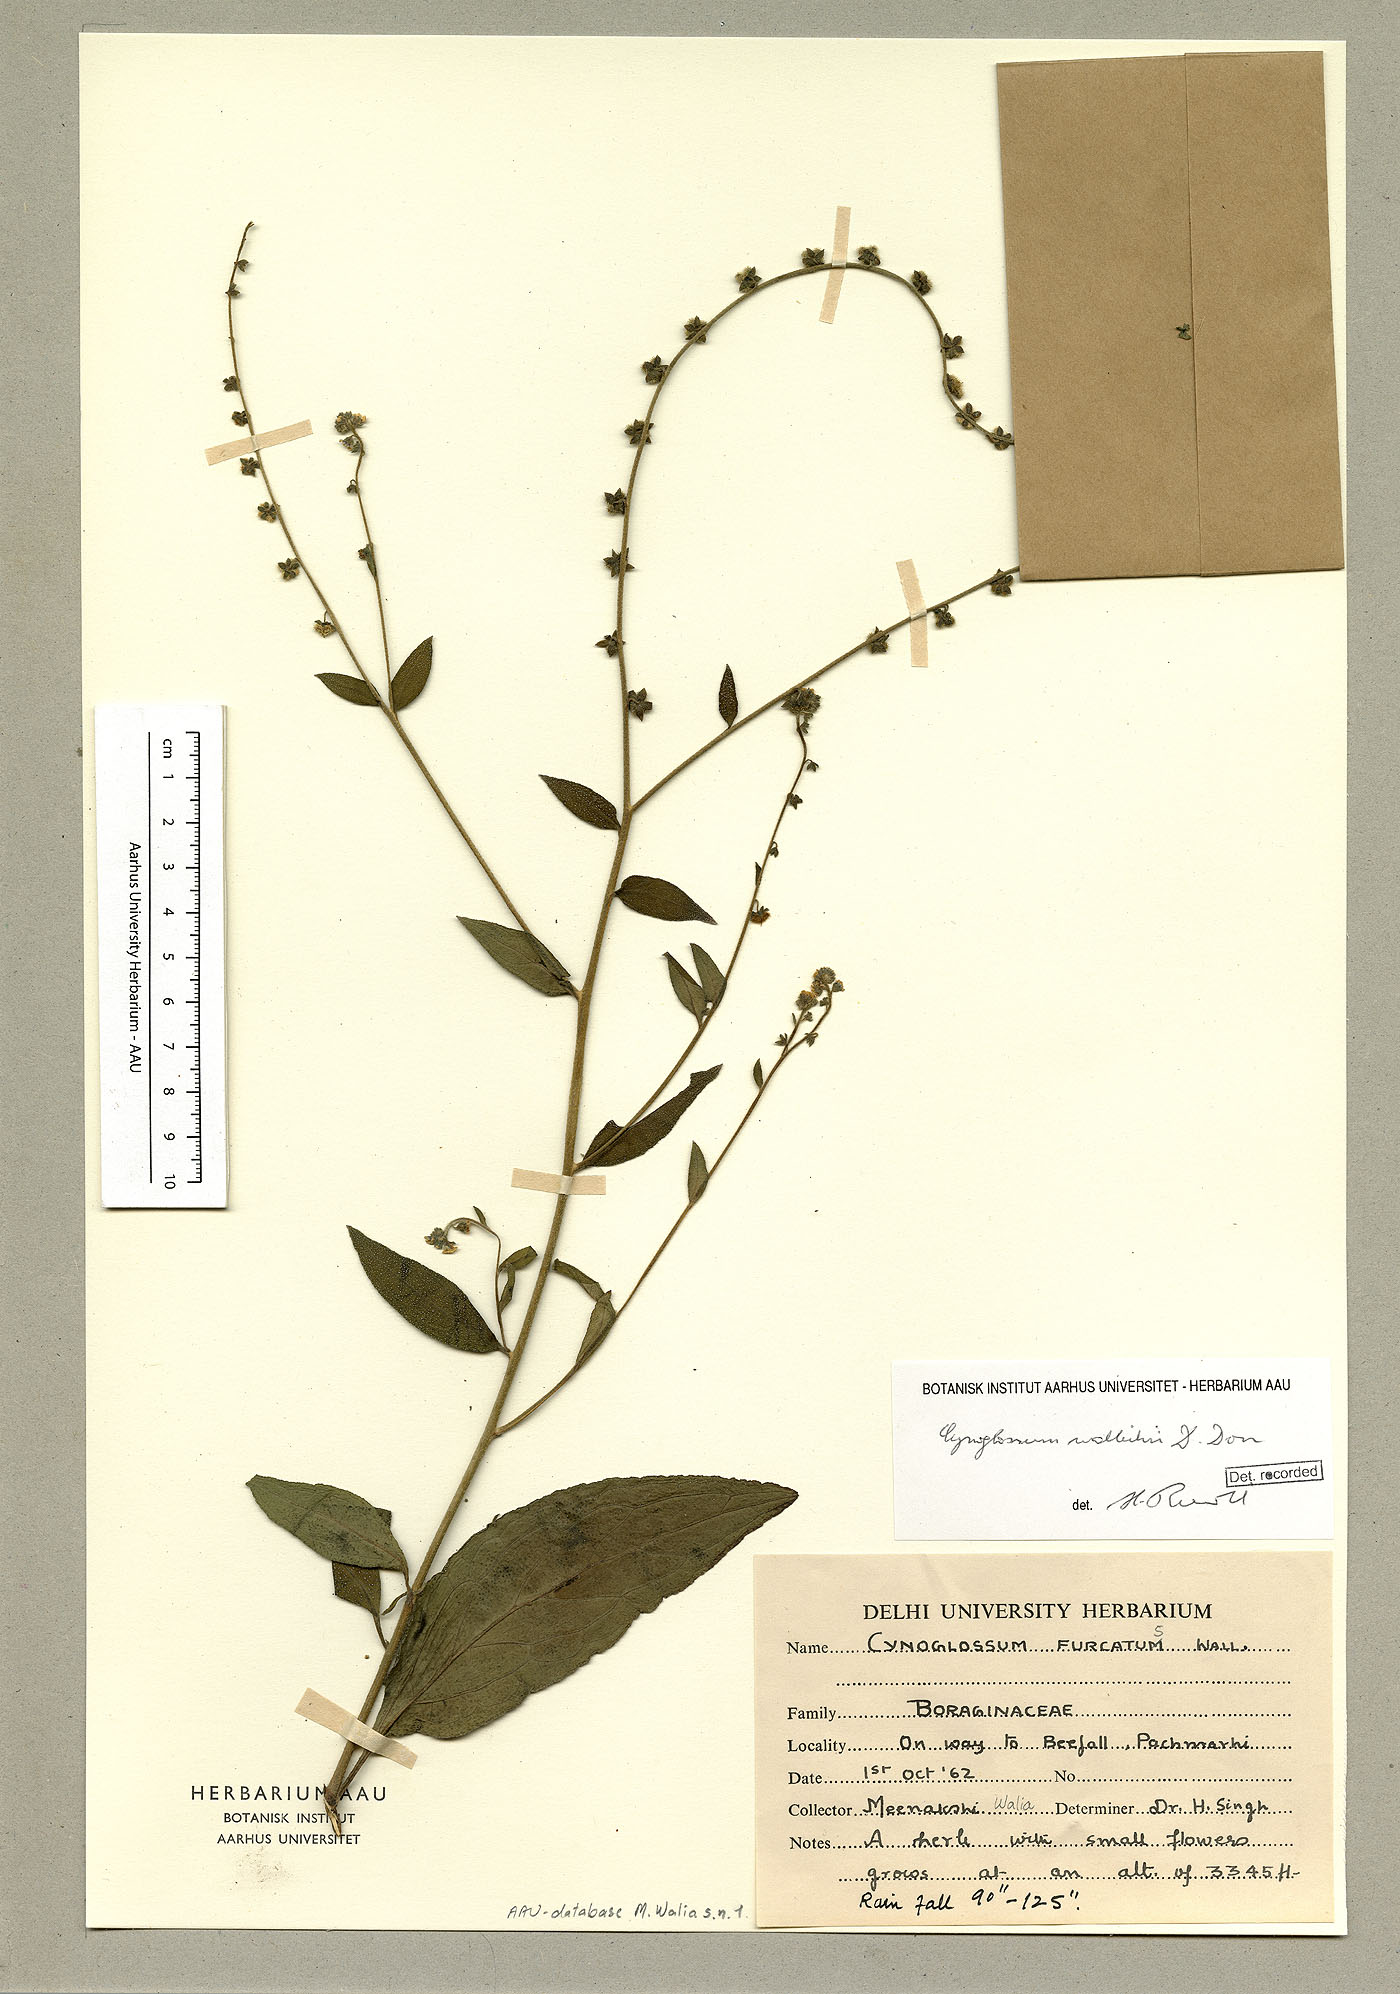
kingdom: Plantae
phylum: Tracheophyta
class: Magnoliopsida
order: Boraginales
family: Boraginaceae
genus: Rochelia
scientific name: Rochelia zeylanica
